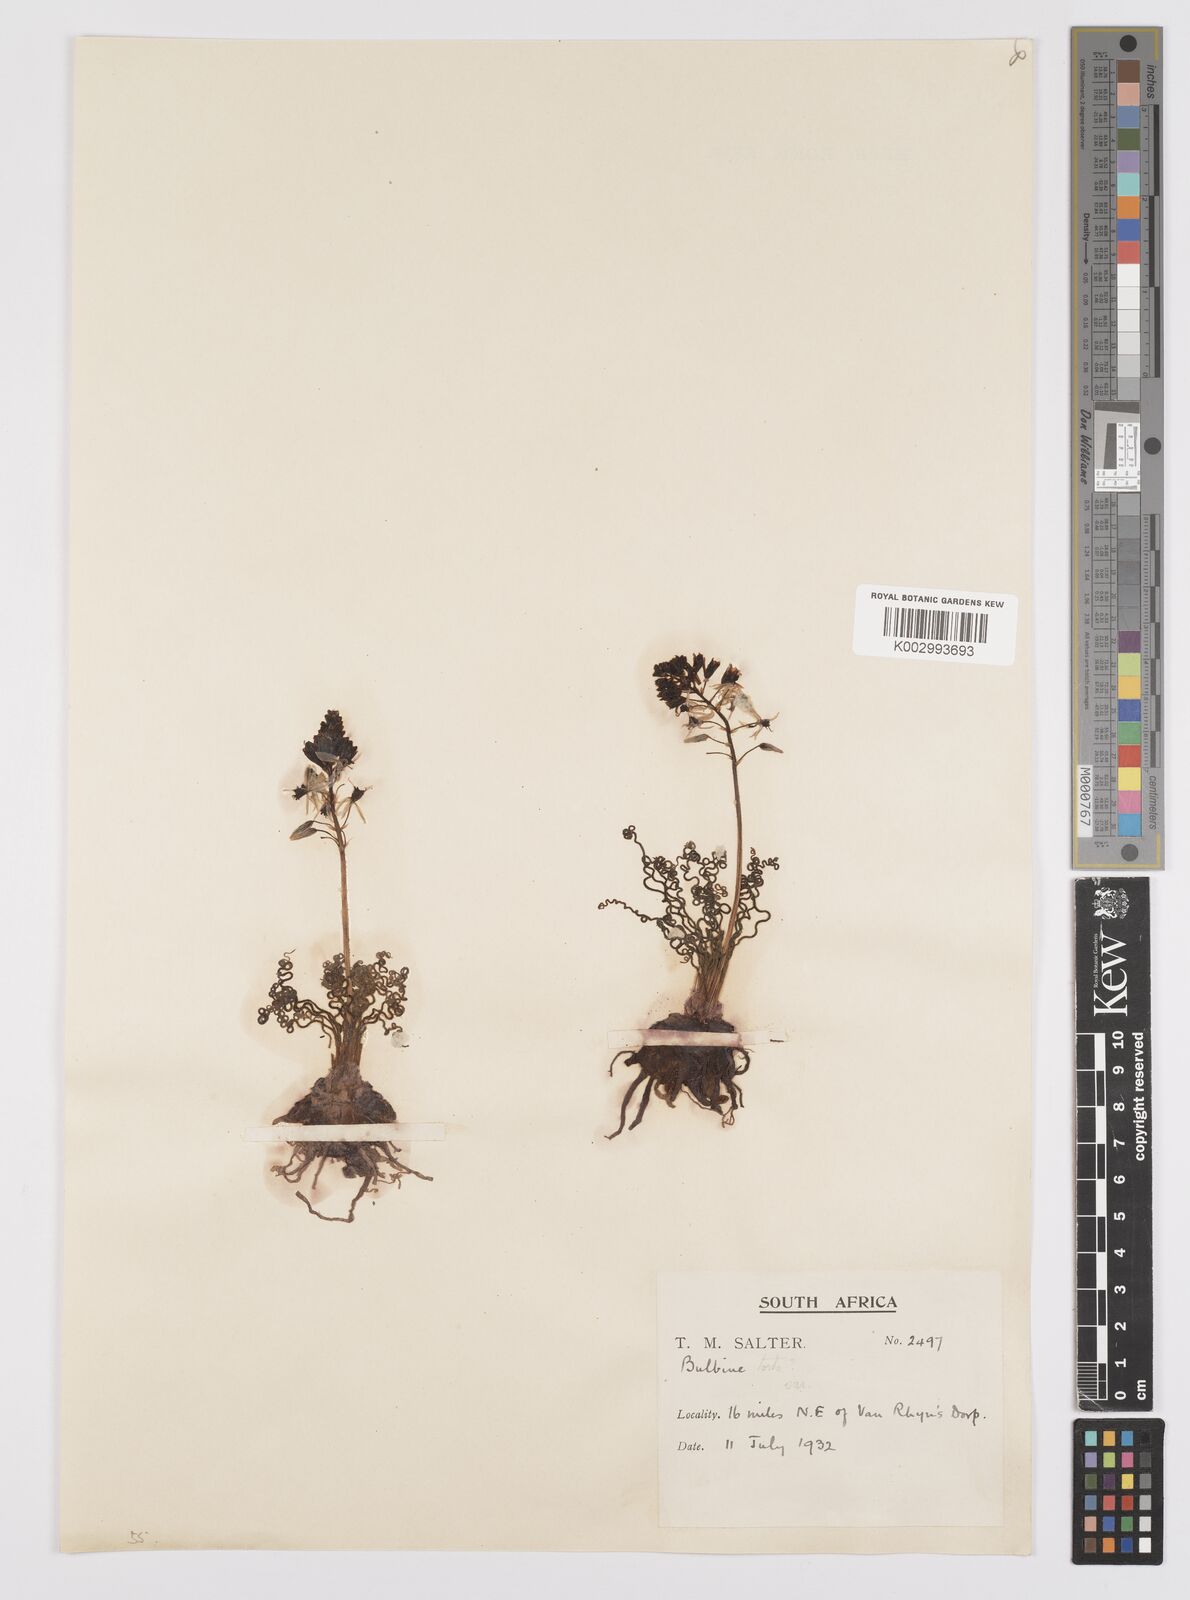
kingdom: Plantae
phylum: Tracheophyta
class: Liliopsida
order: Asparagales
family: Asphodelaceae
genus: Bulbine
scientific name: Bulbine torta
